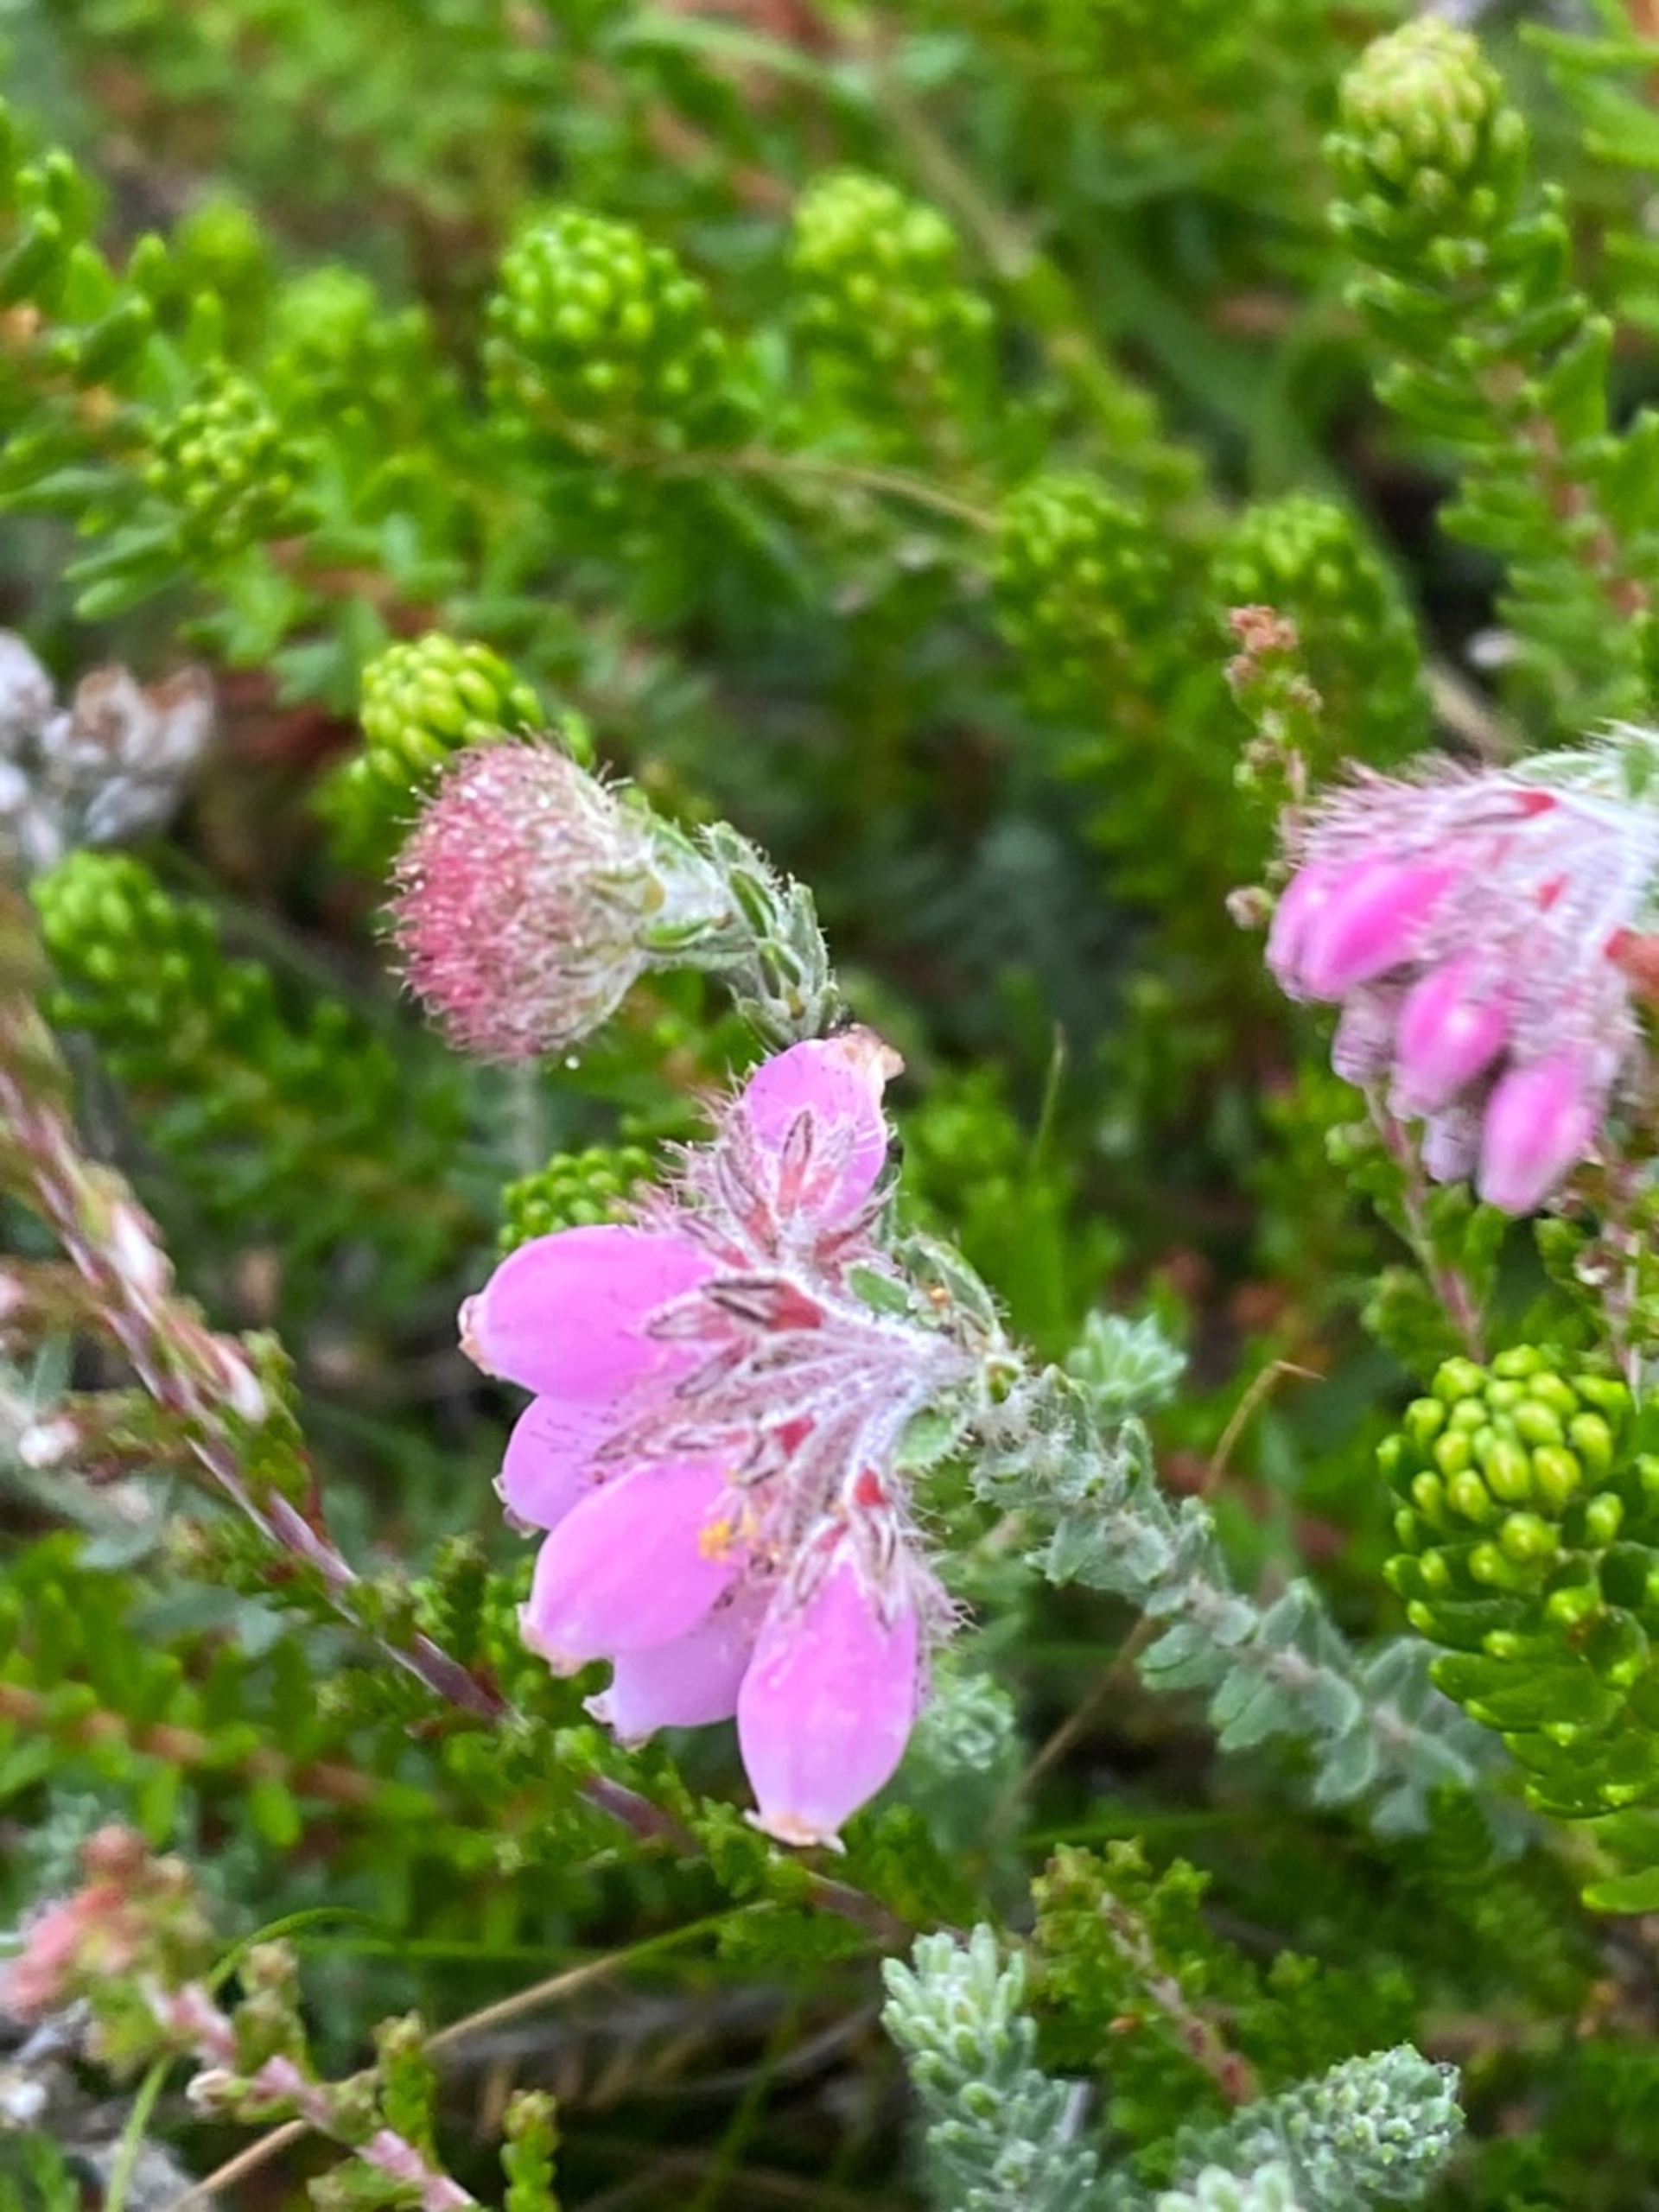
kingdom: Plantae
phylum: Tracheophyta
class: Magnoliopsida
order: Ericales
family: Ericaceae
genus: Erica
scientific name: Erica tetralix
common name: Klokkelyng
